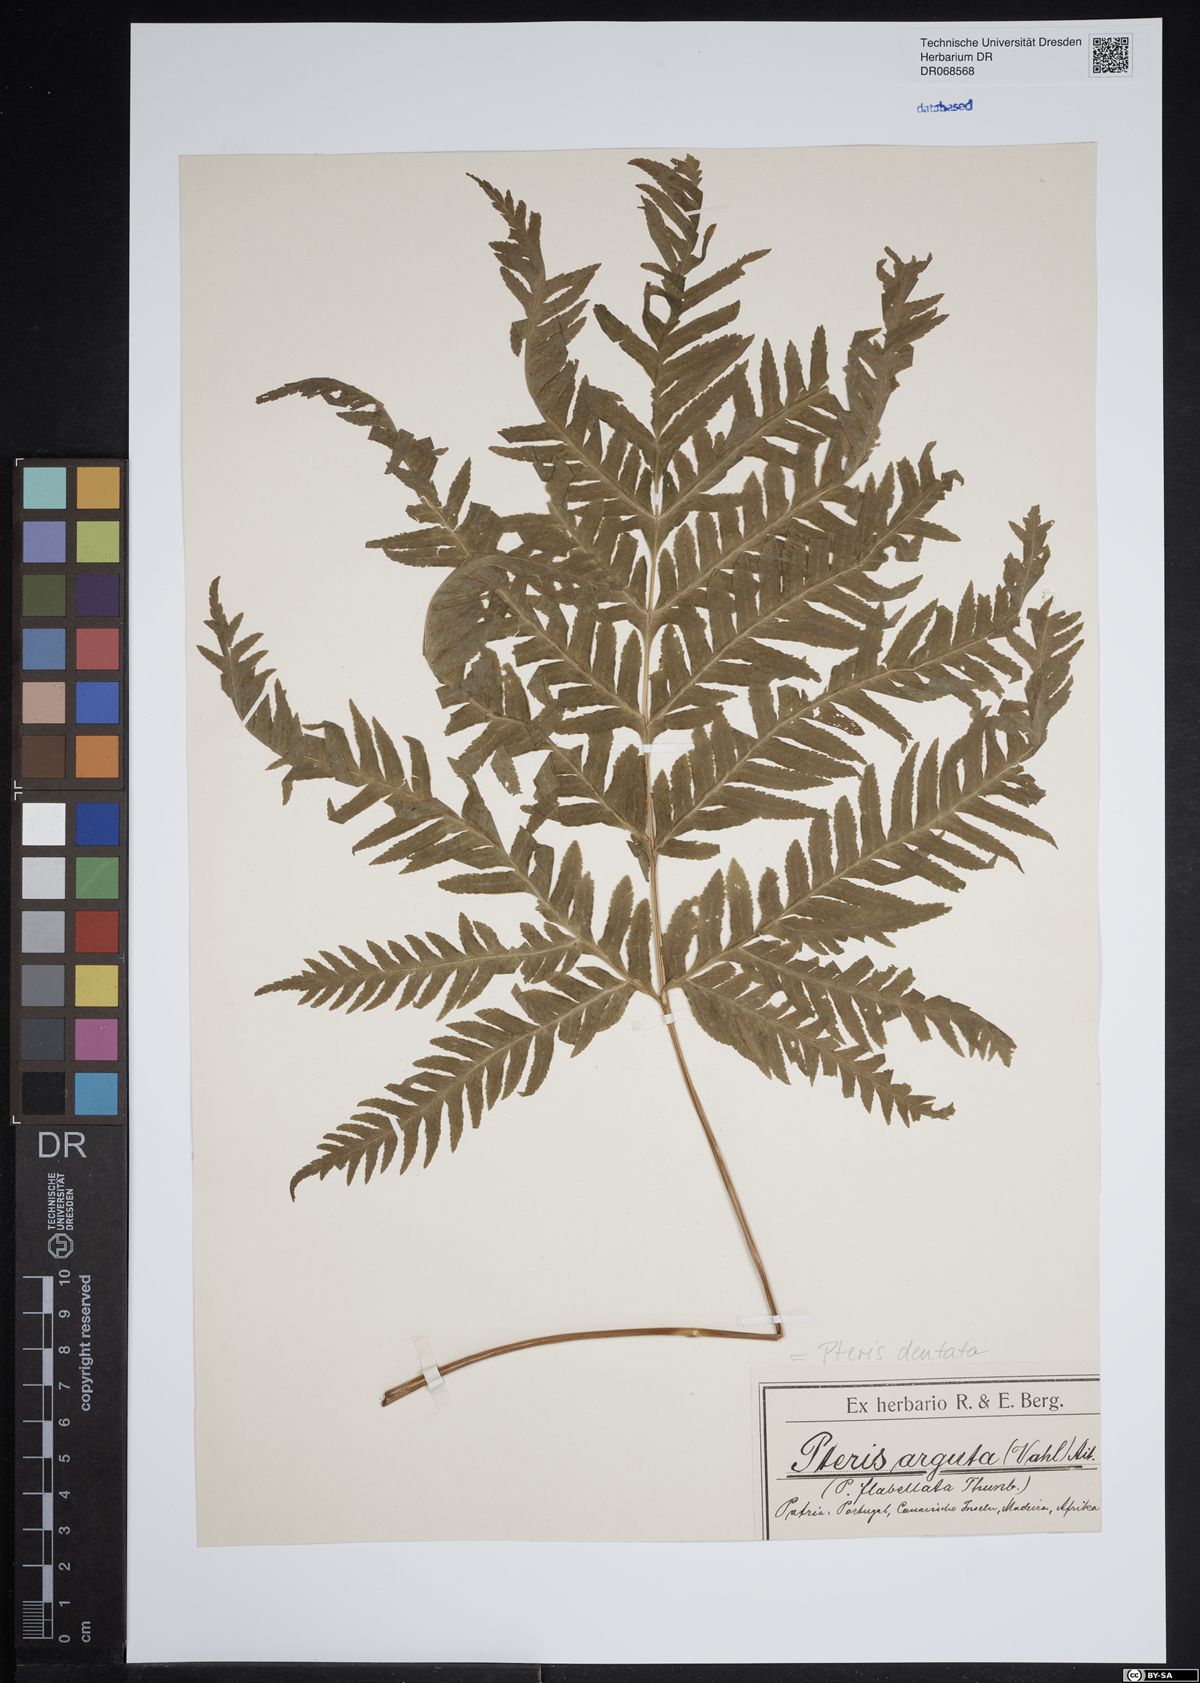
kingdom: Plantae
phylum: Tracheophyta
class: Polypodiopsida
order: Polypodiales
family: Pteridaceae
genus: Pteris
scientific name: Pteris dentata
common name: Toothed brake
